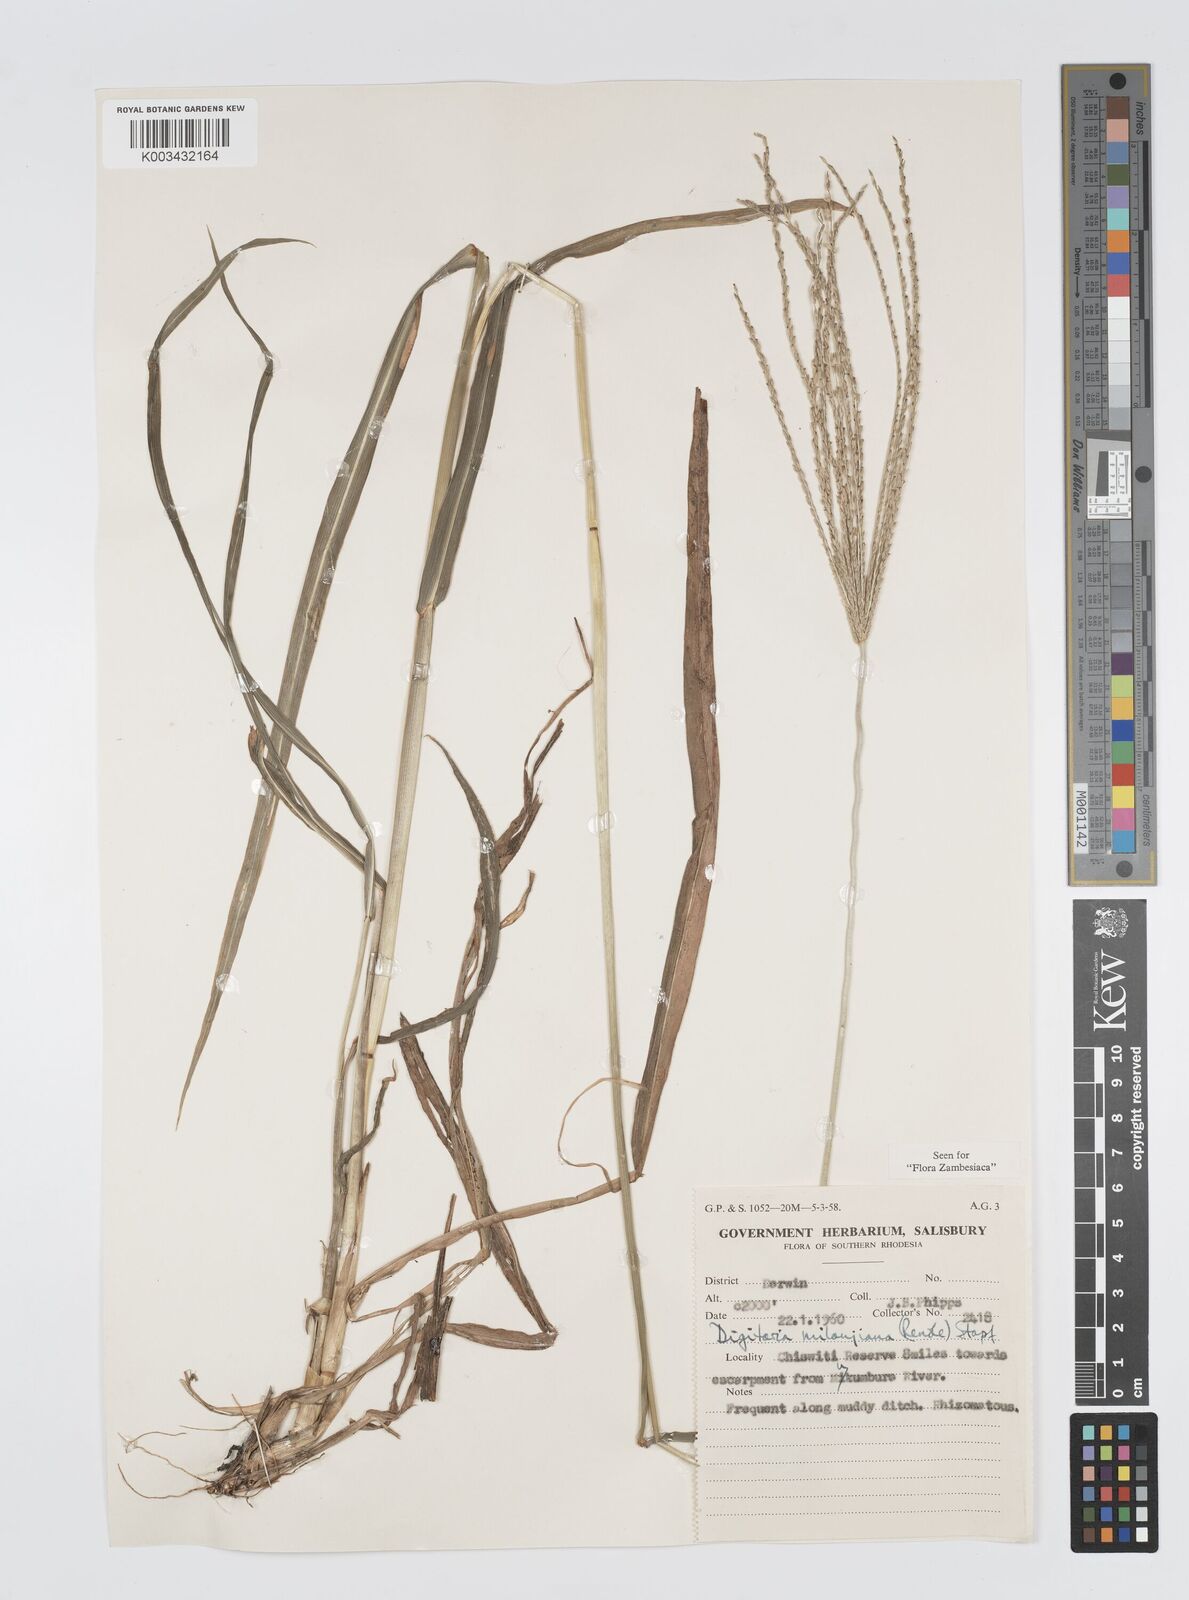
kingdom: Plantae
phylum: Tracheophyta
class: Liliopsida
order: Poales
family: Poaceae
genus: Digitaria
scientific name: Digitaria milanjiana
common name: Madagascar crabgrass
